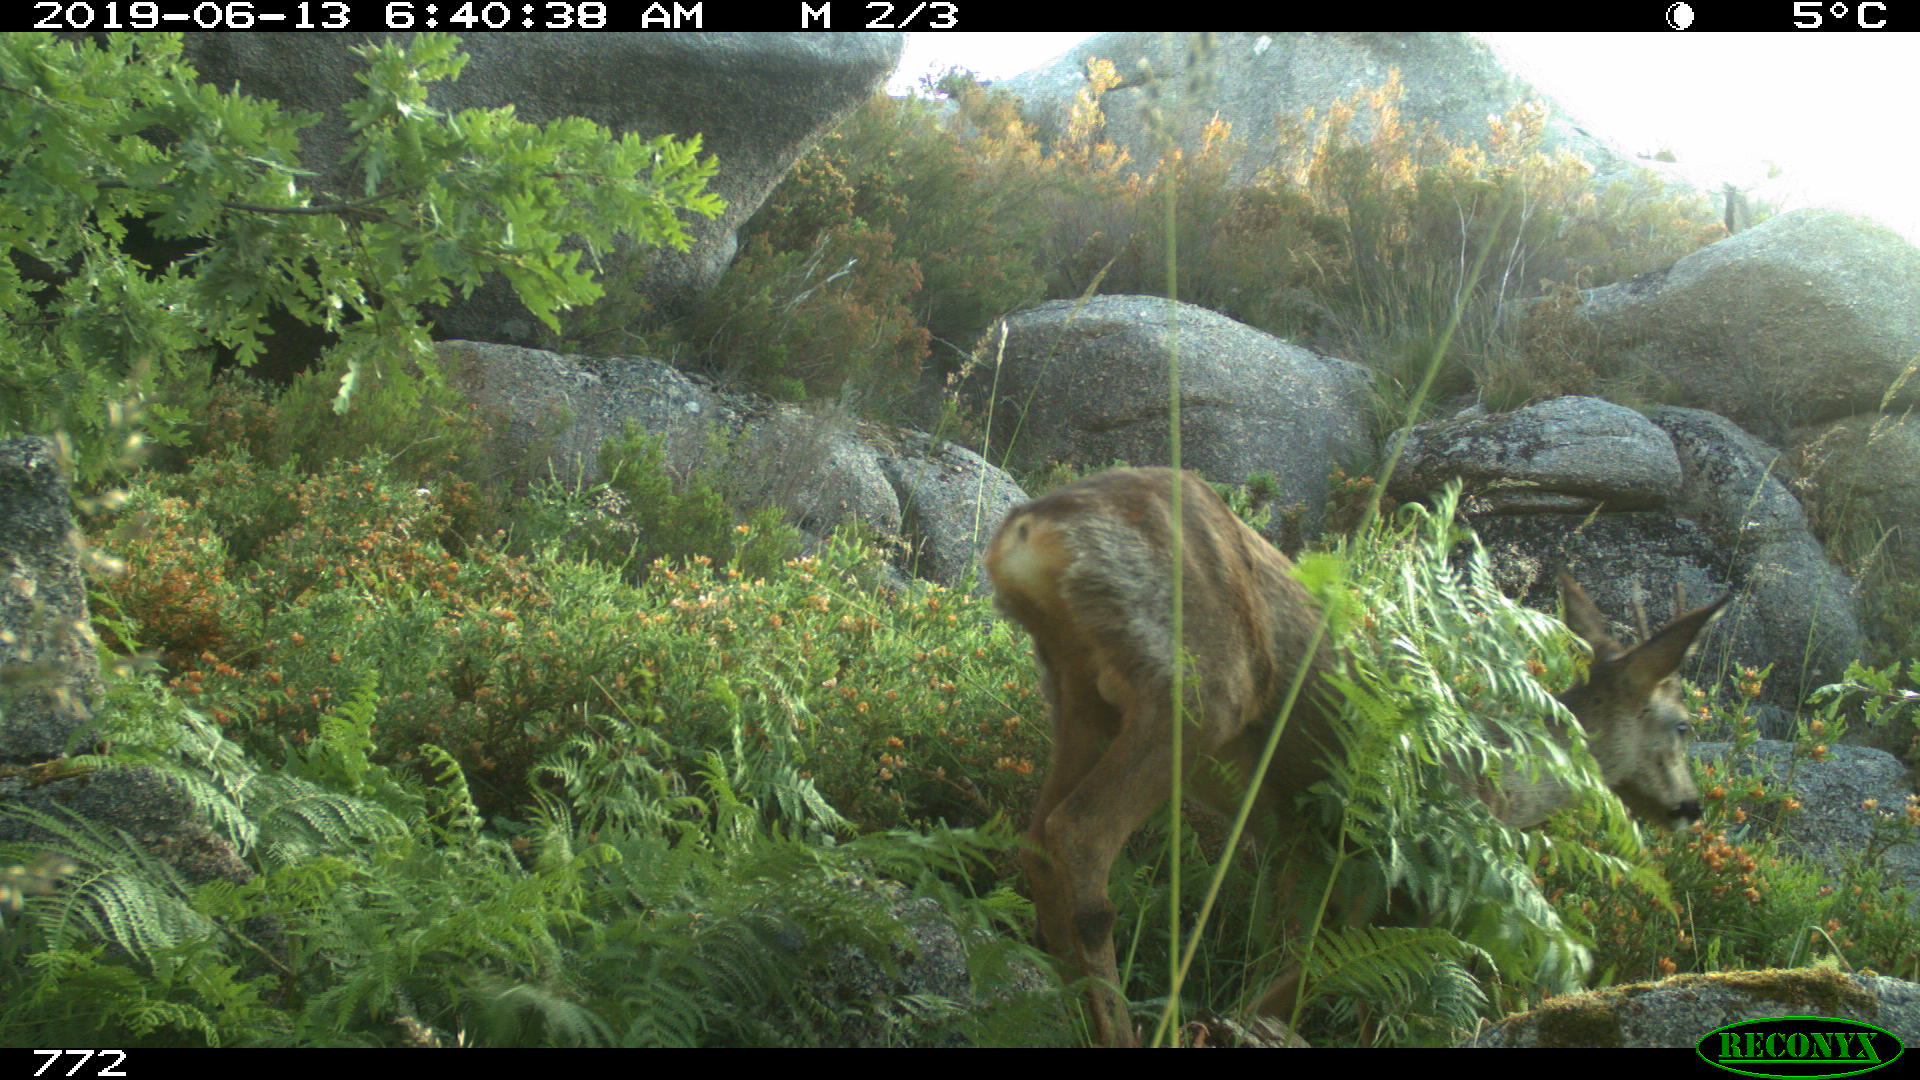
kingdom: Animalia
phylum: Chordata
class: Mammalia
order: Artiodactyla
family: Cervidae
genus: Capreolus
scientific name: Capreolus capreolus
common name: Western roe deer
